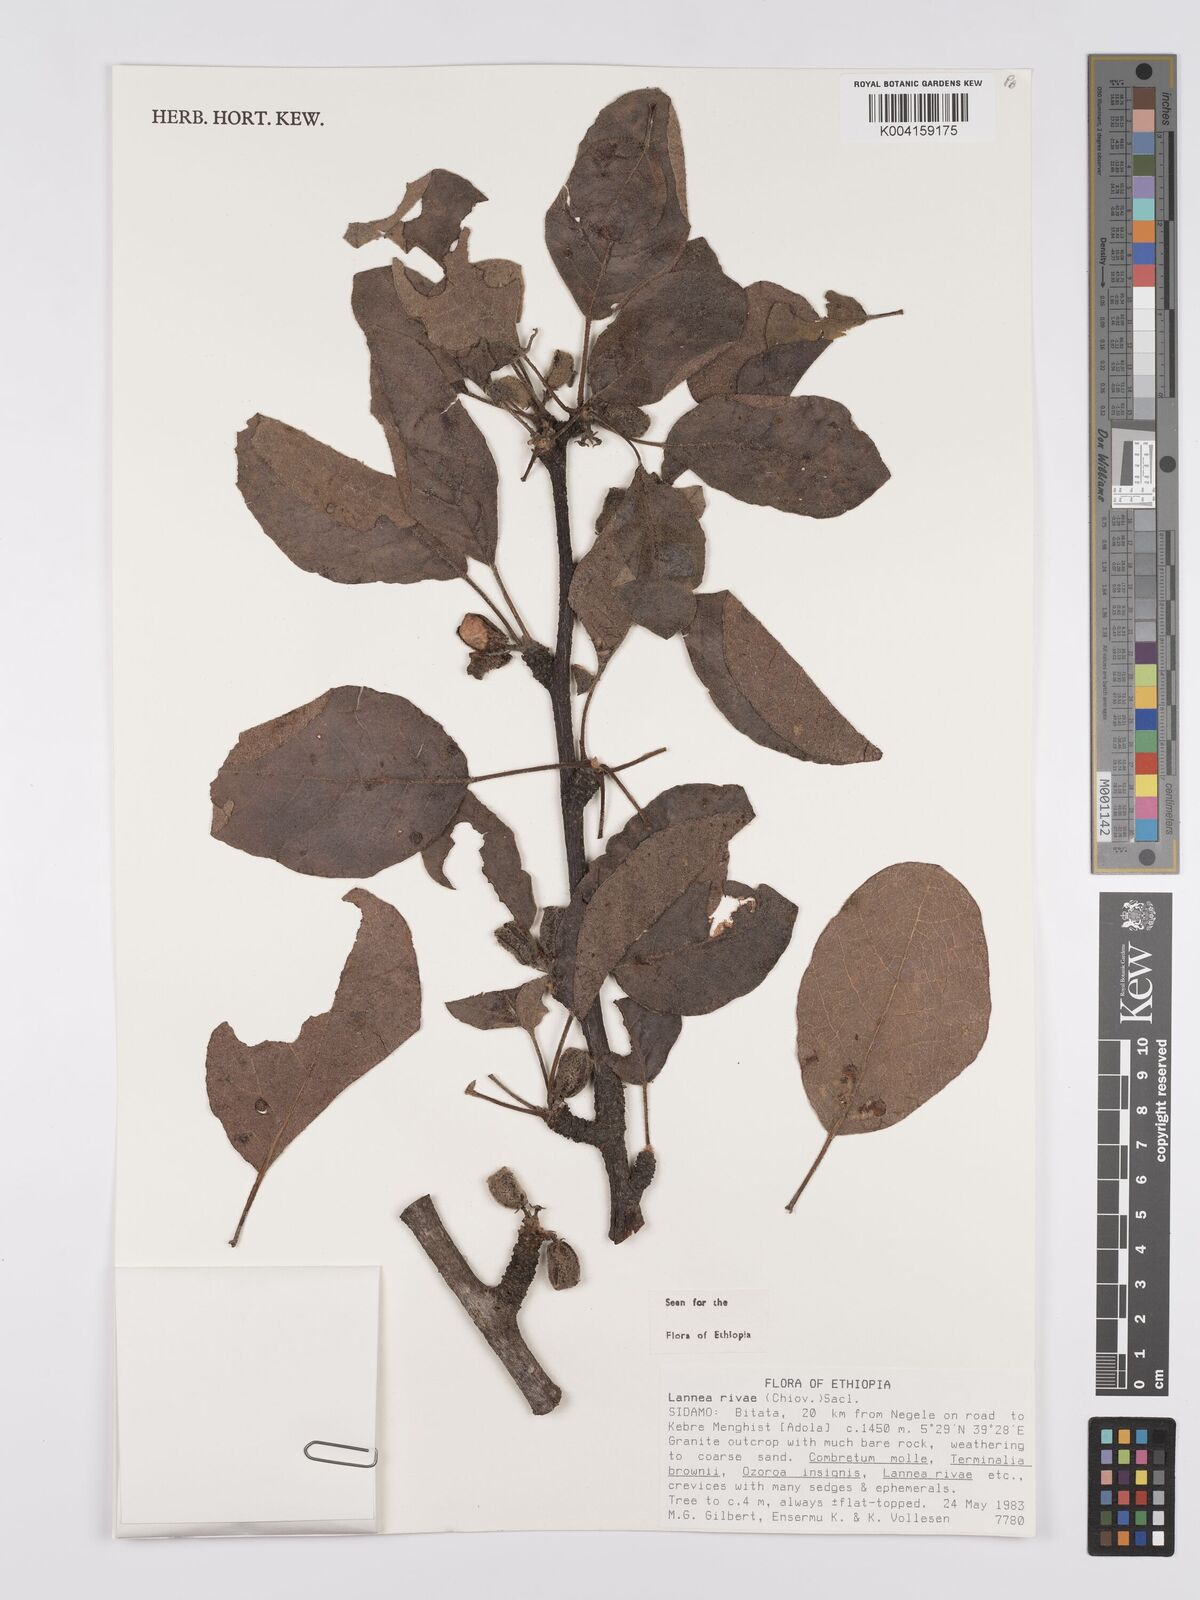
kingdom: Plantae
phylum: Tracheophyta
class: Magnoliopsida
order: Sapindales
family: Anacardiaceae
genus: Lannea
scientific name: Lannea rivae
